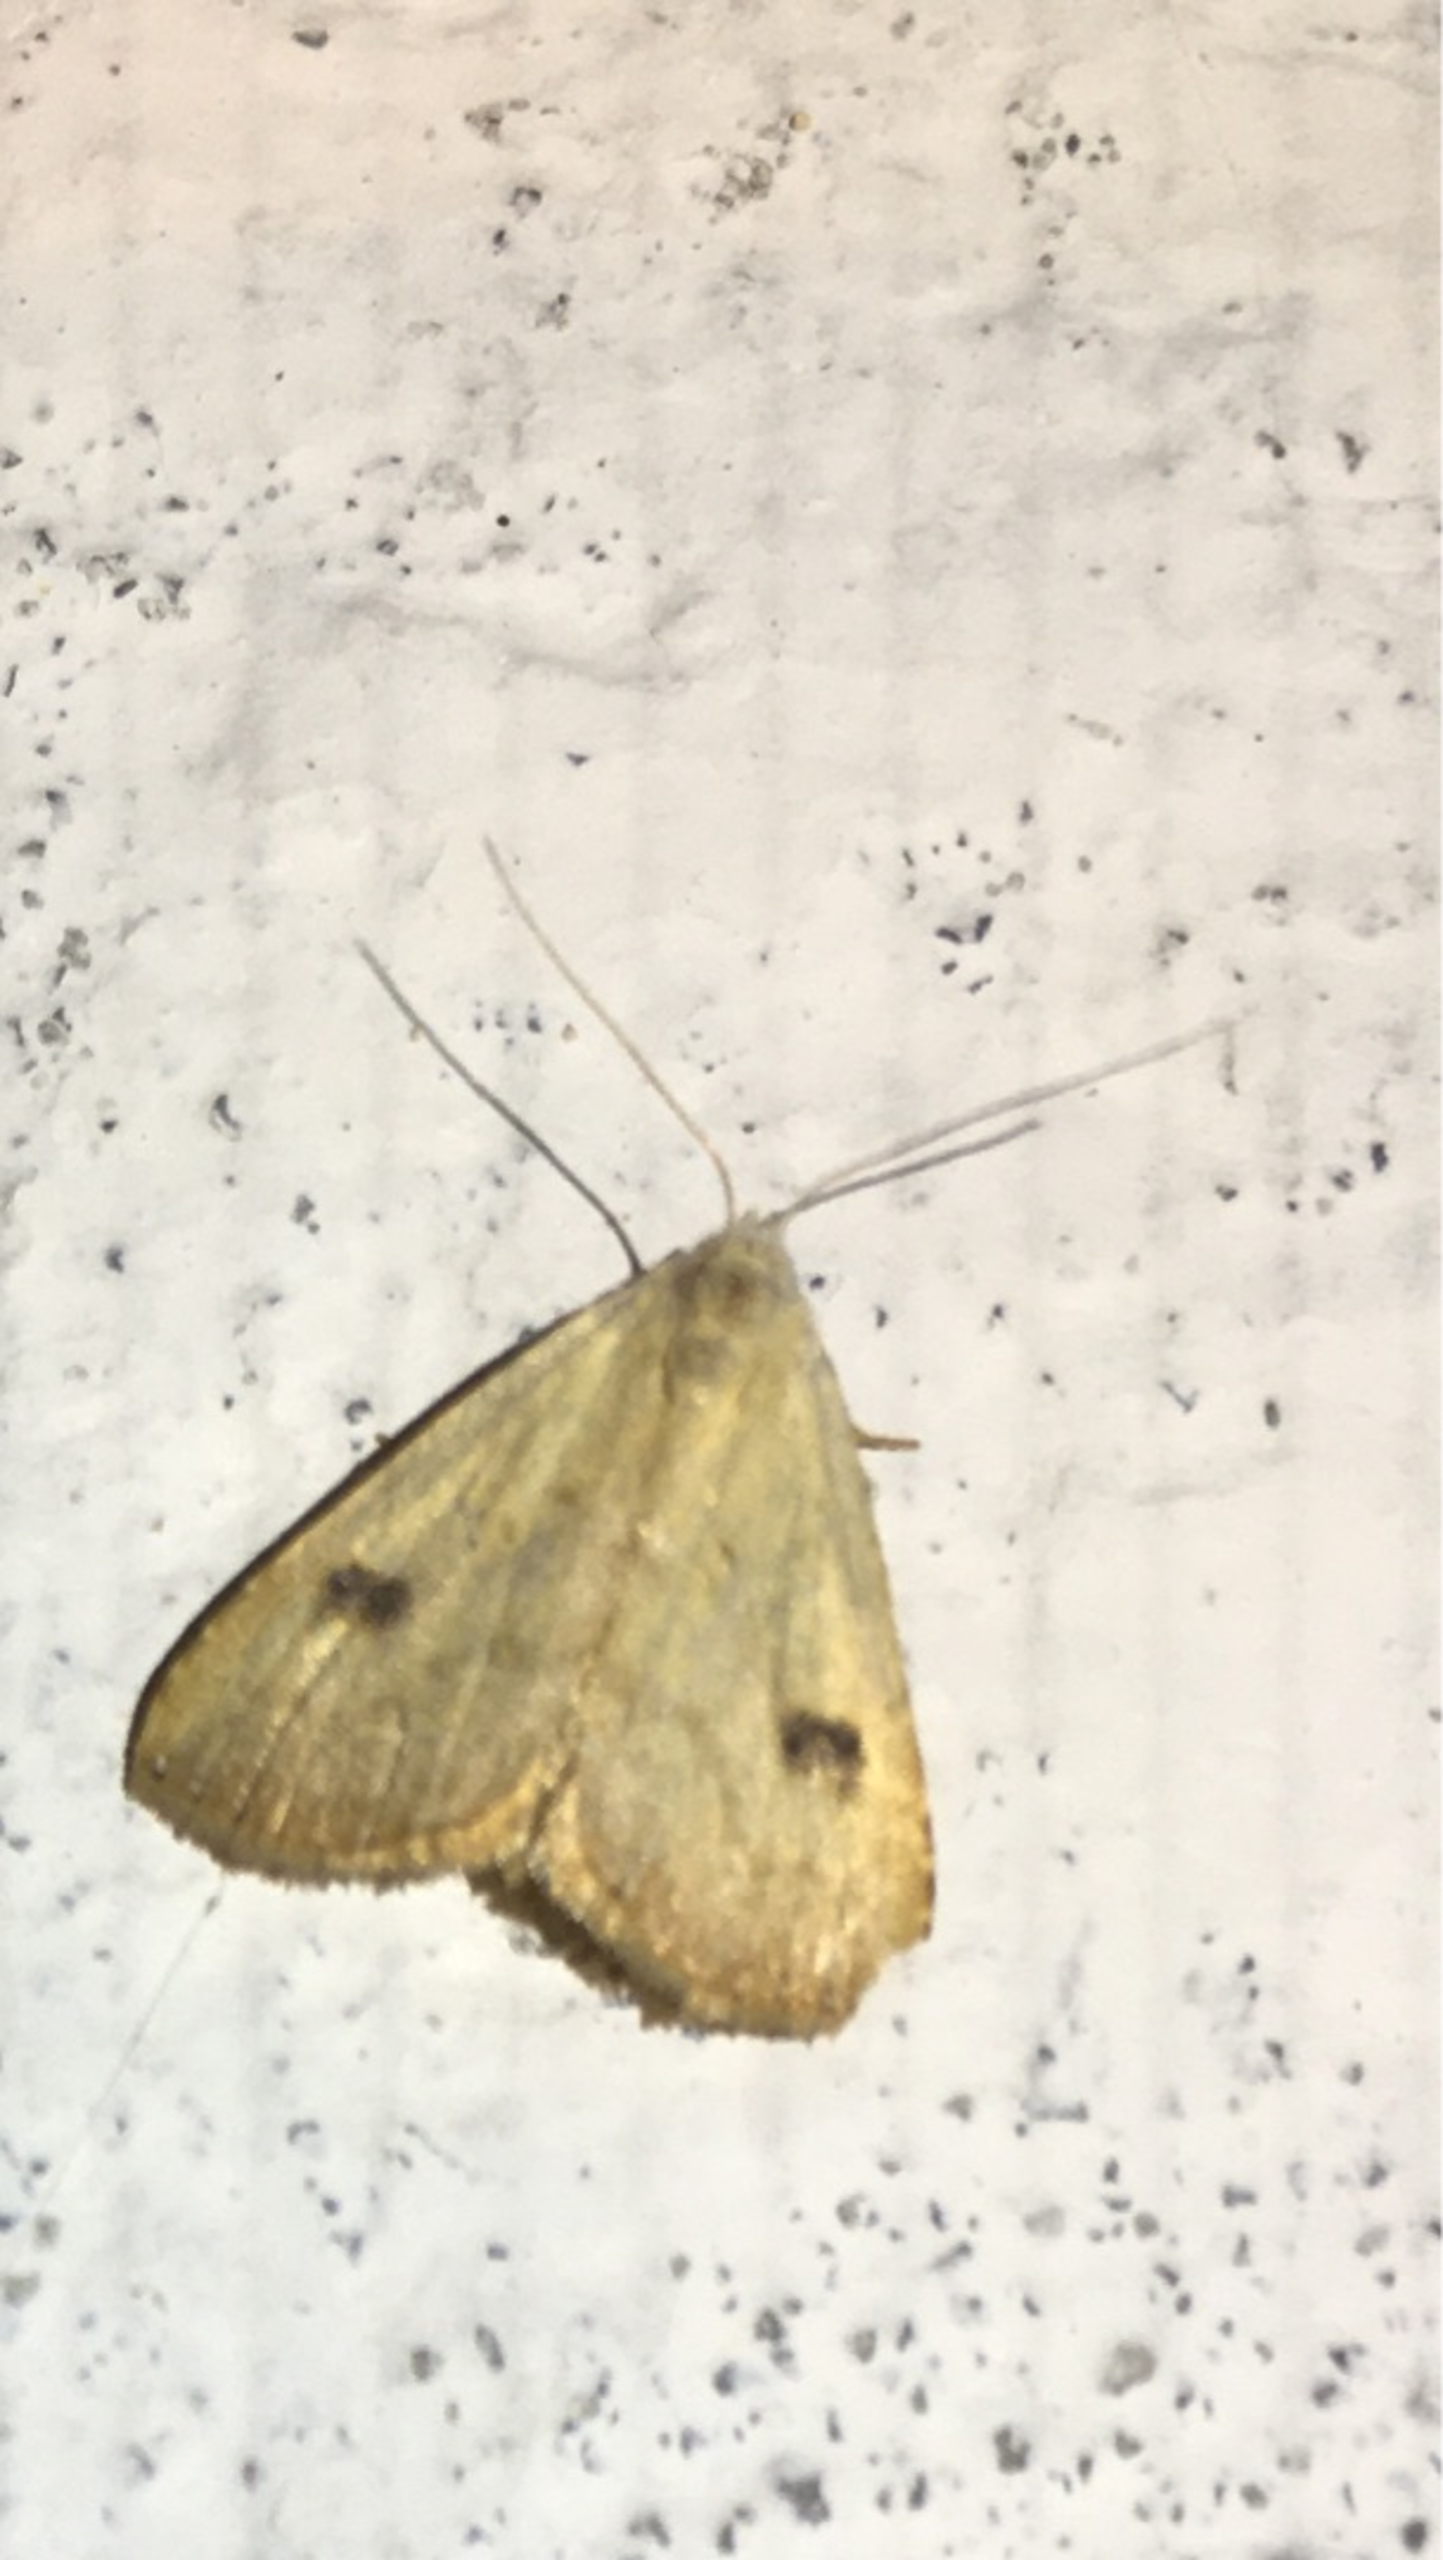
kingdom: Animalia
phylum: Arthropoda
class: Insecta
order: Lepidoptera
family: Erebidae
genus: Rivula
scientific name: Rivula sericealis
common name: Lille å-ugle
